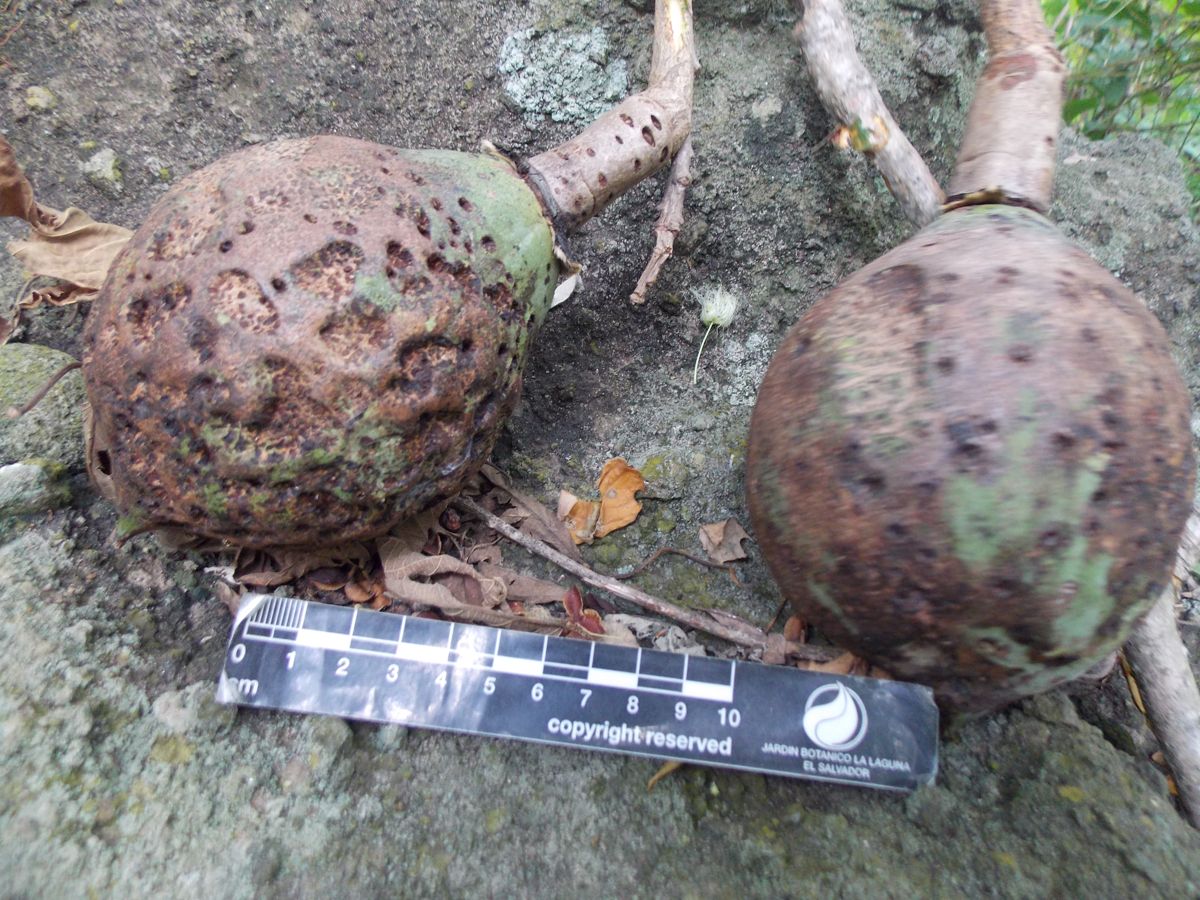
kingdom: Plantae
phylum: Tracheophyta
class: Magnoliopsida
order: Malvales
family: Malvaceae
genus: Ceiba
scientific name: Ceiba aesculifolia
